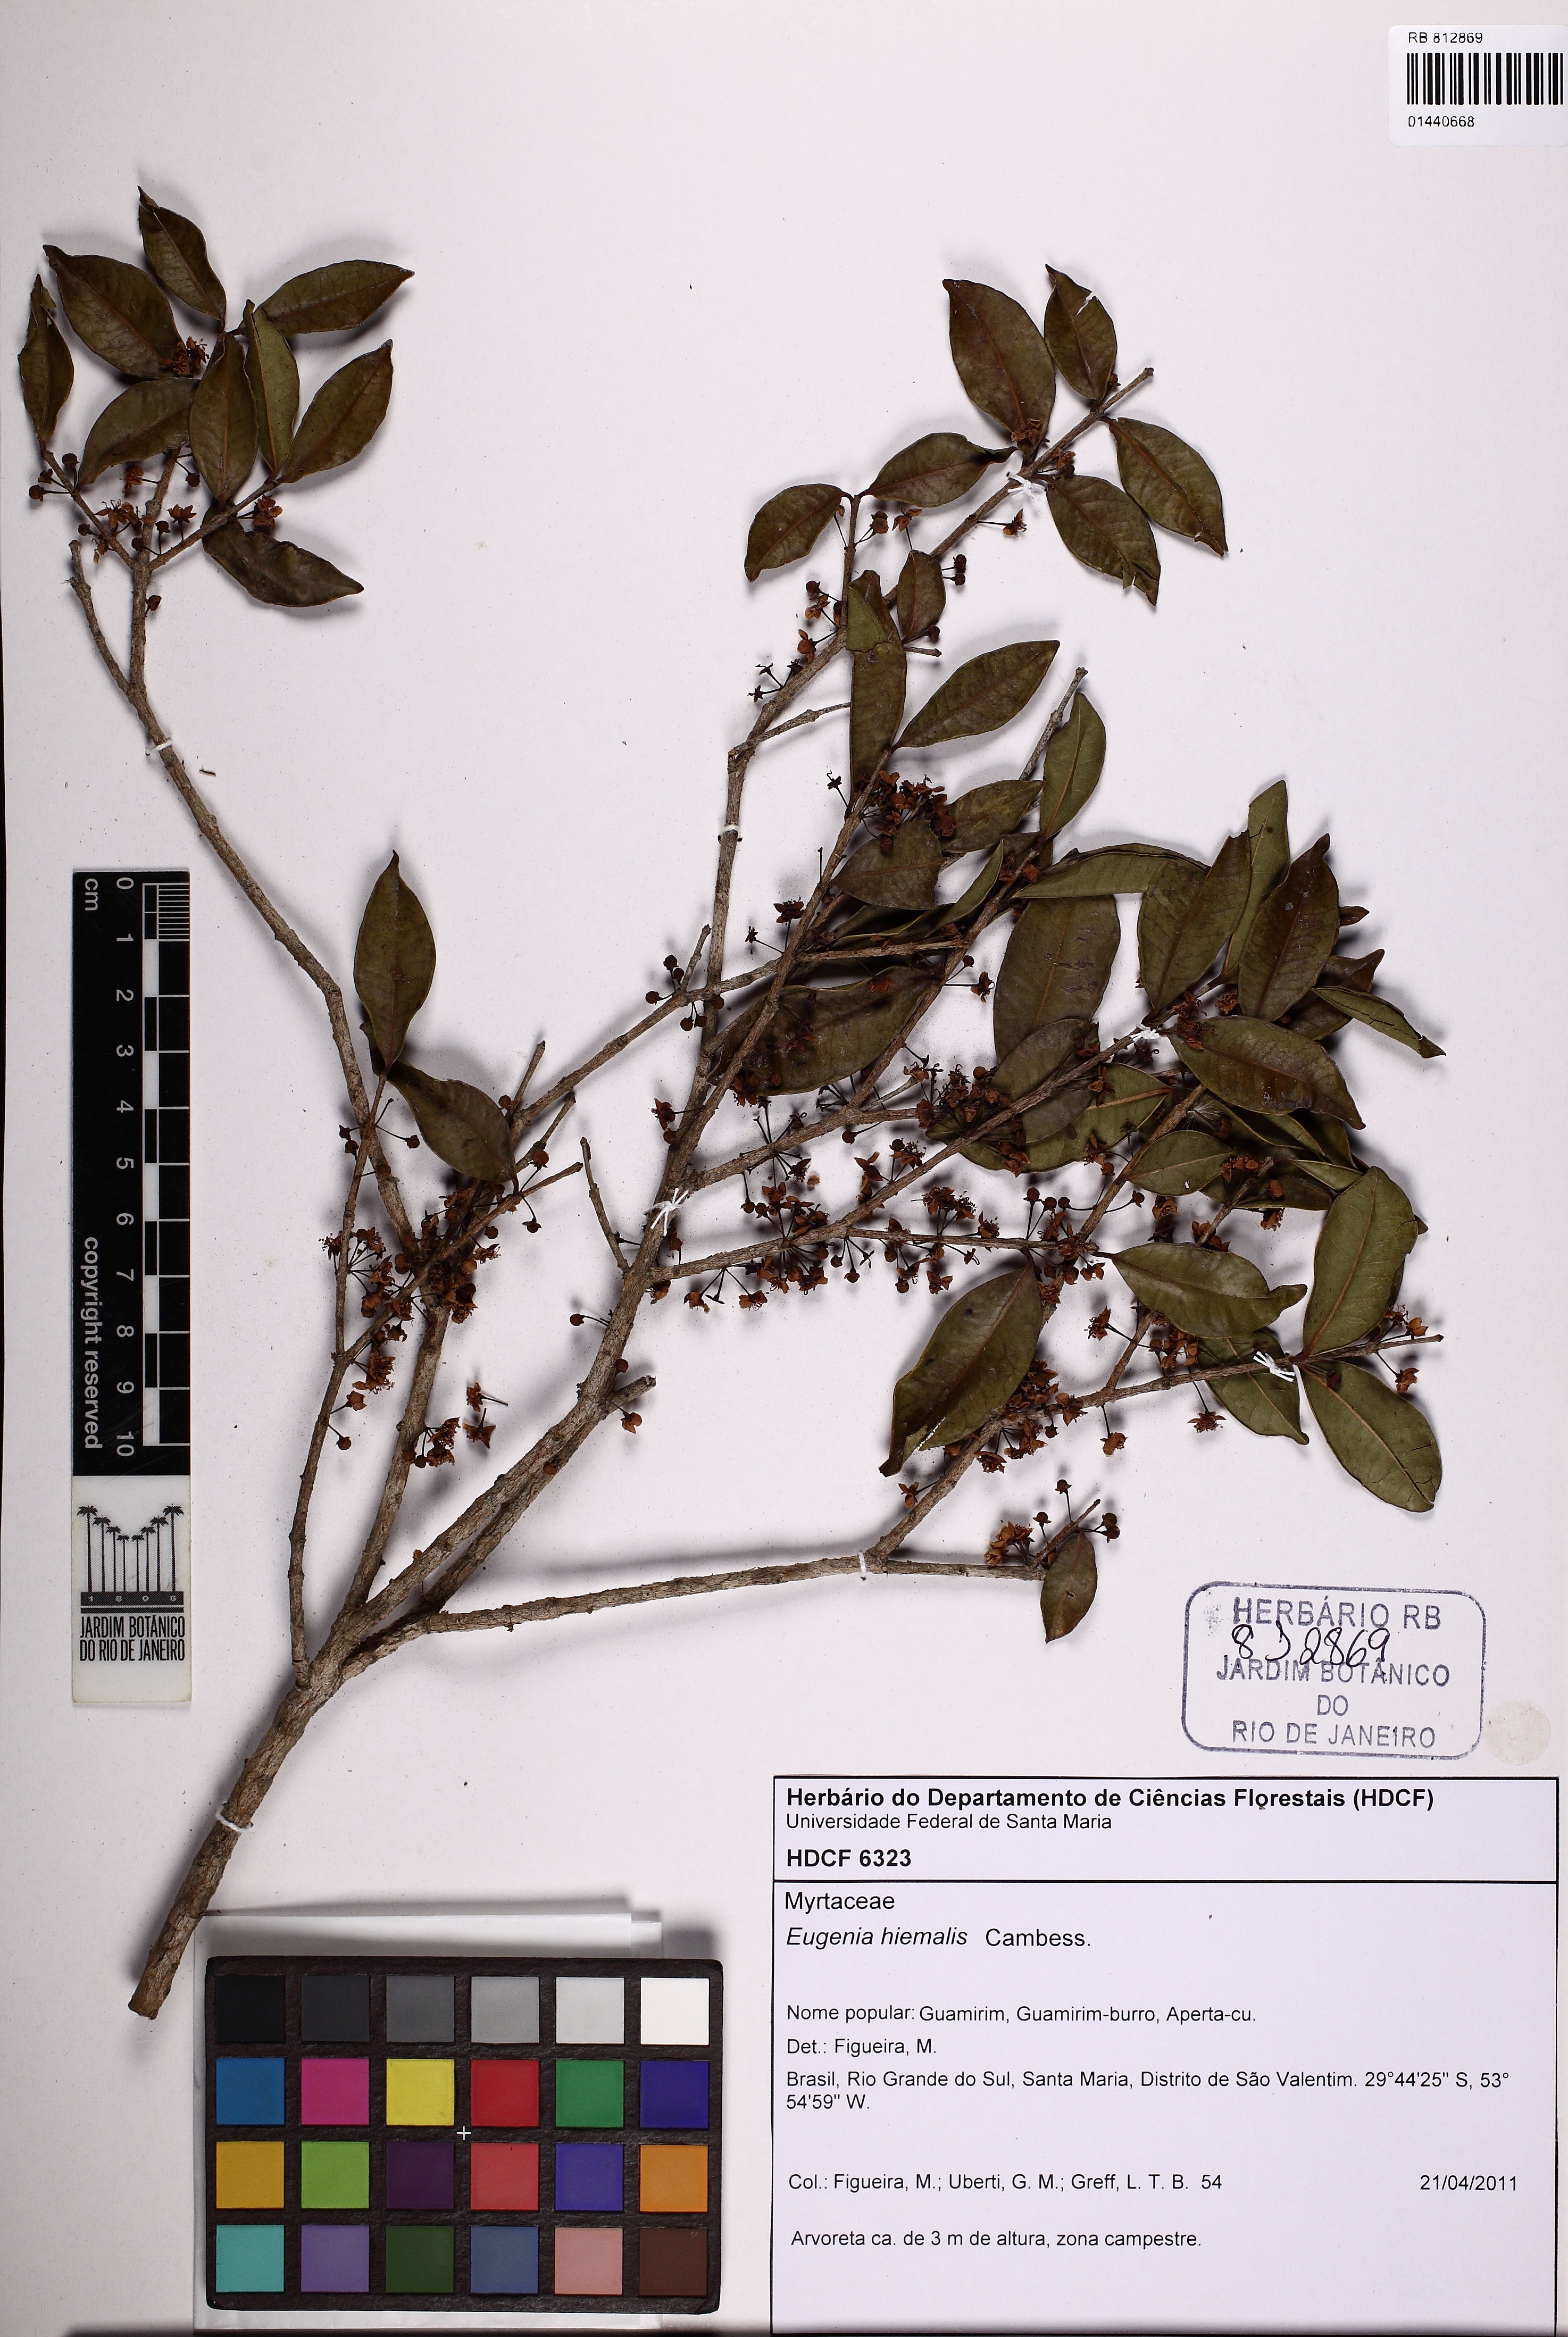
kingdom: Plantae
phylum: Tracheophyta
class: Magnoliopsida
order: Myrtales
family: Myrtaceae
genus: Eugenia
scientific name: Eugenia hiemalis
